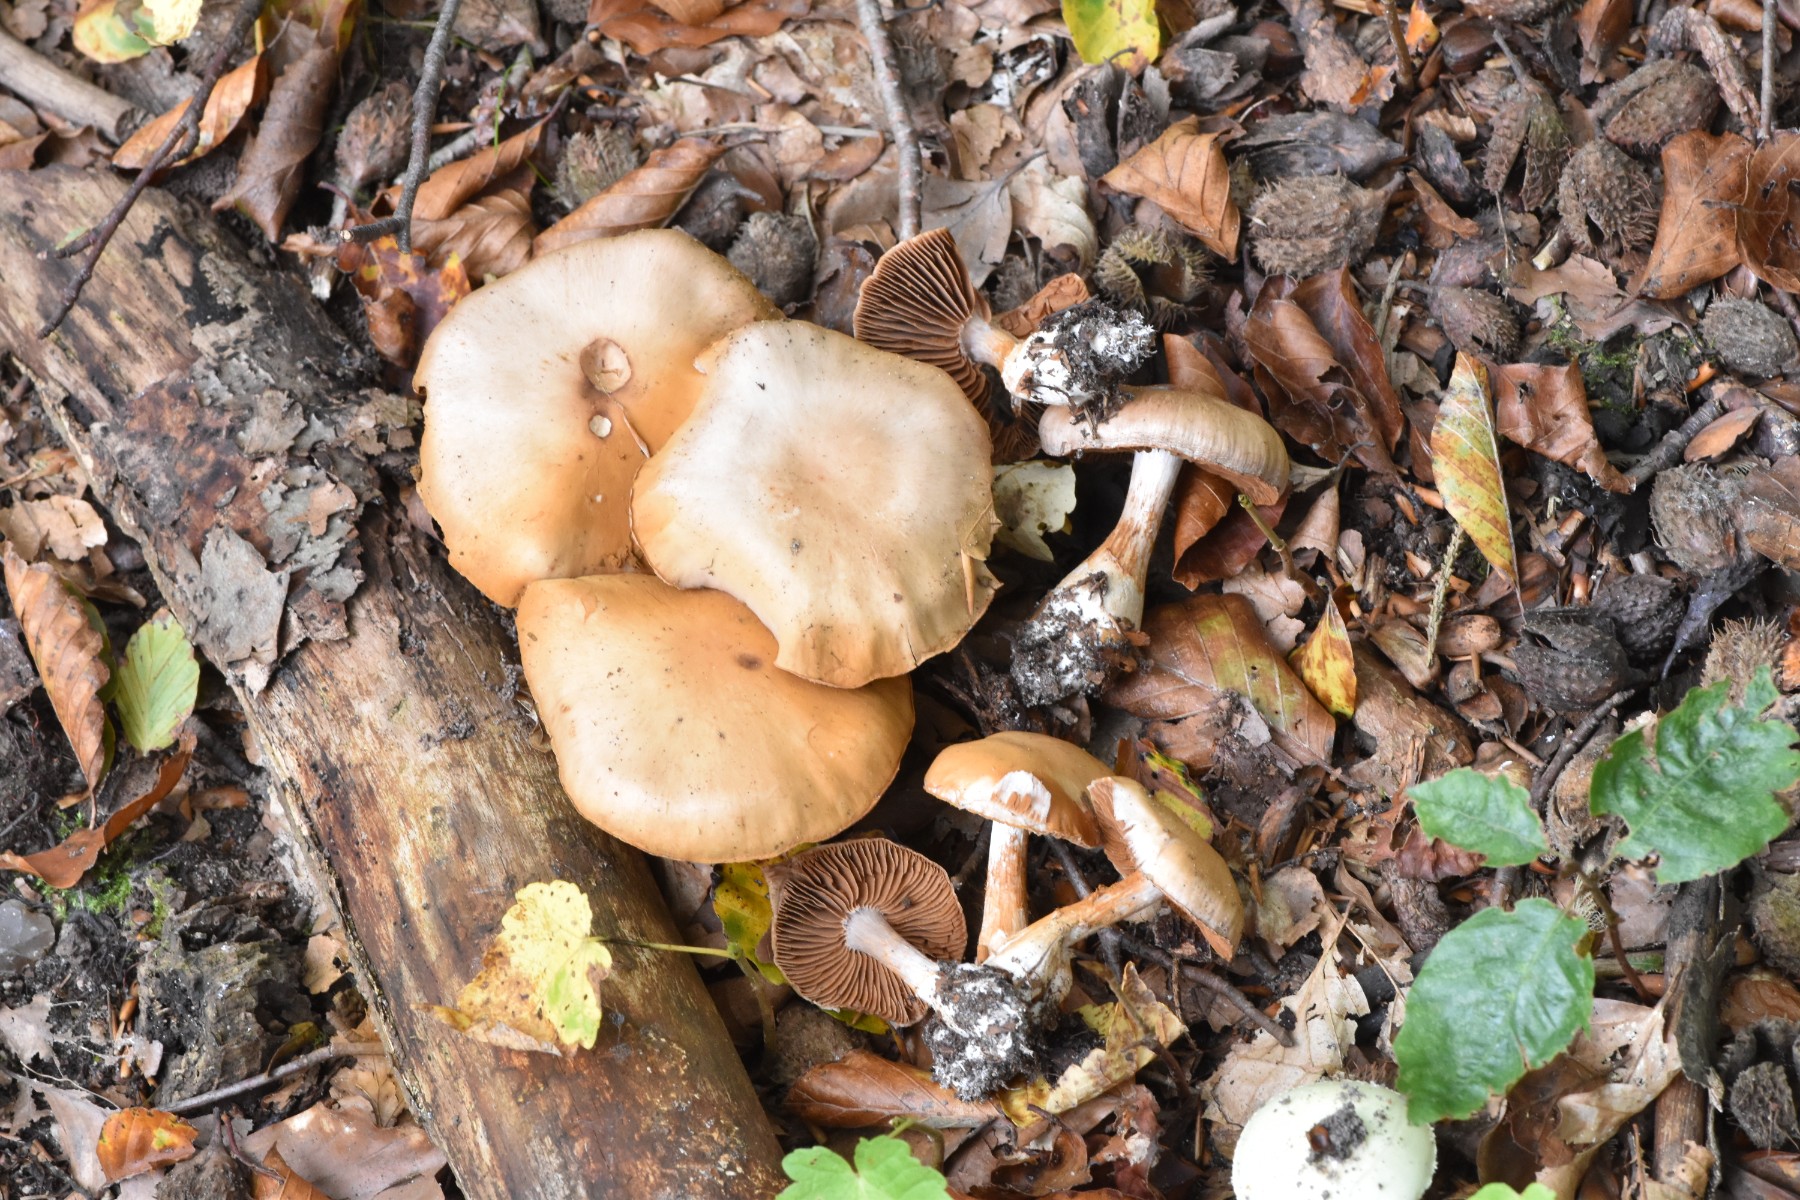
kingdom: Fungi
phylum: Basidiomycota
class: Agaricomycetes
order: Agaricales
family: Cortinariaceae
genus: Cortinarius
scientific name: Cortinarius
